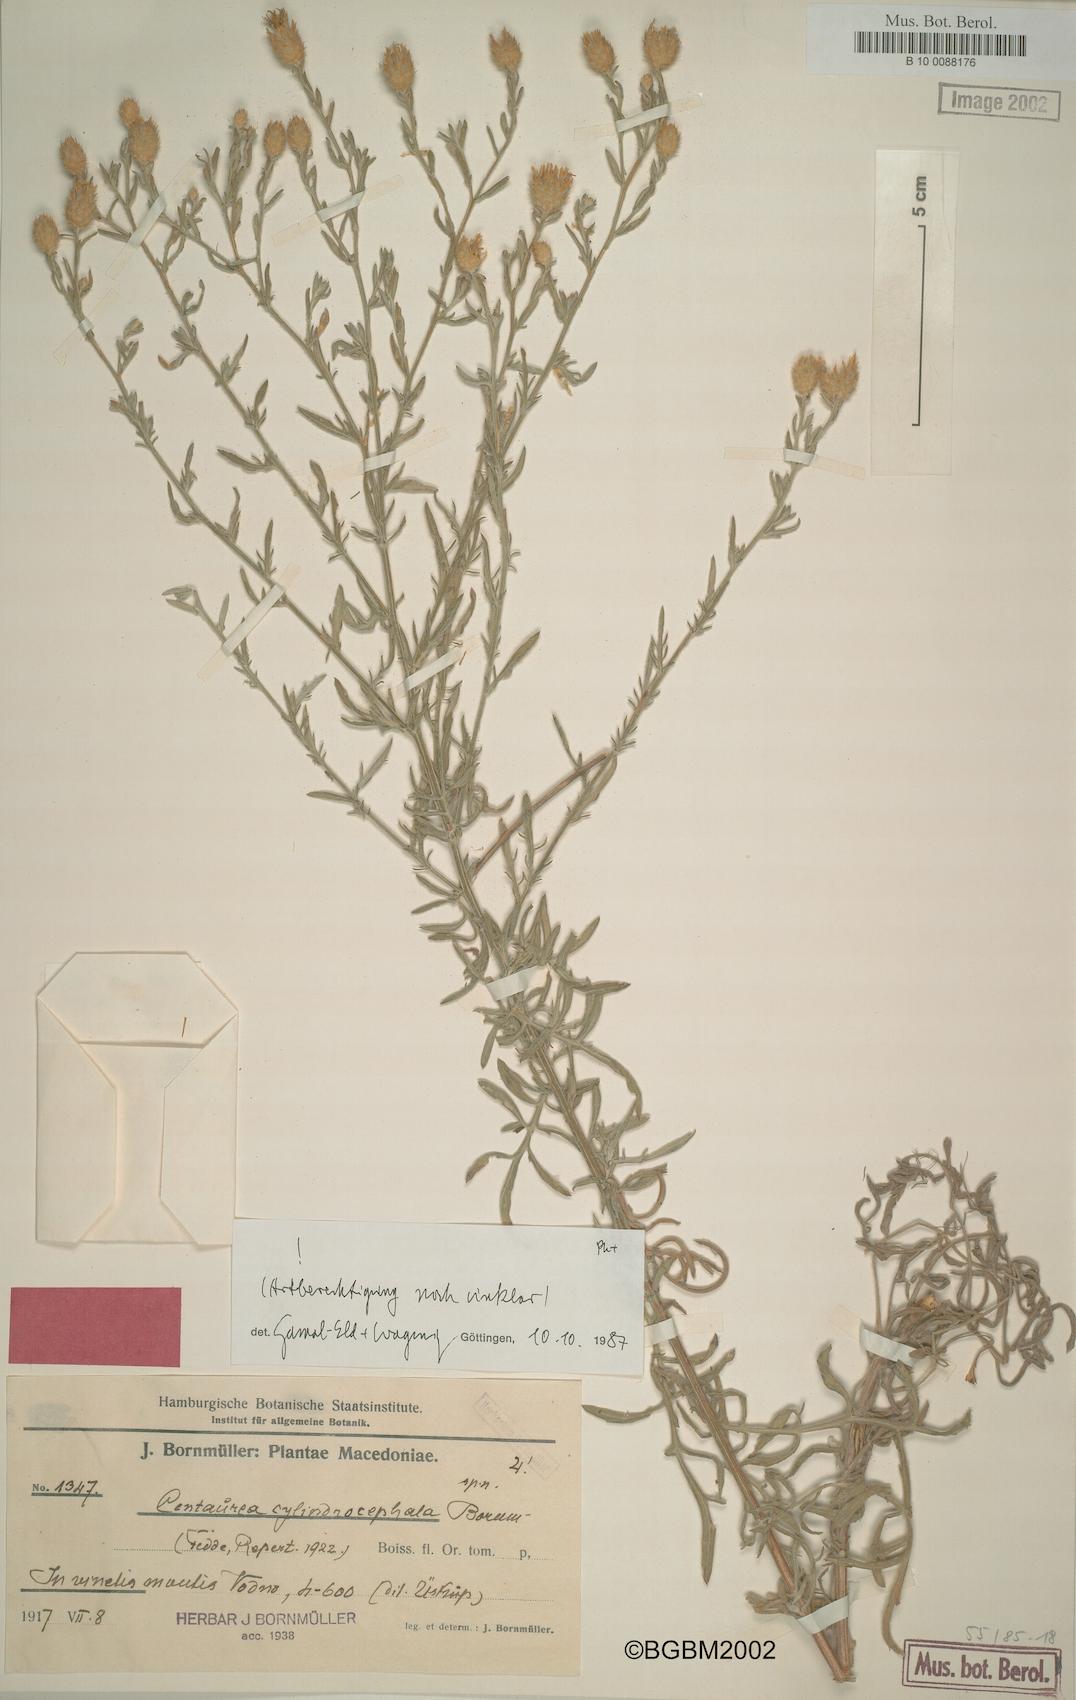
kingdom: Plantae
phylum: Tracheophyta
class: Magnoliopsida
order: Asterales
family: Asteraceae
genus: Centaurea
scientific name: Centaurea cylindrocephala
